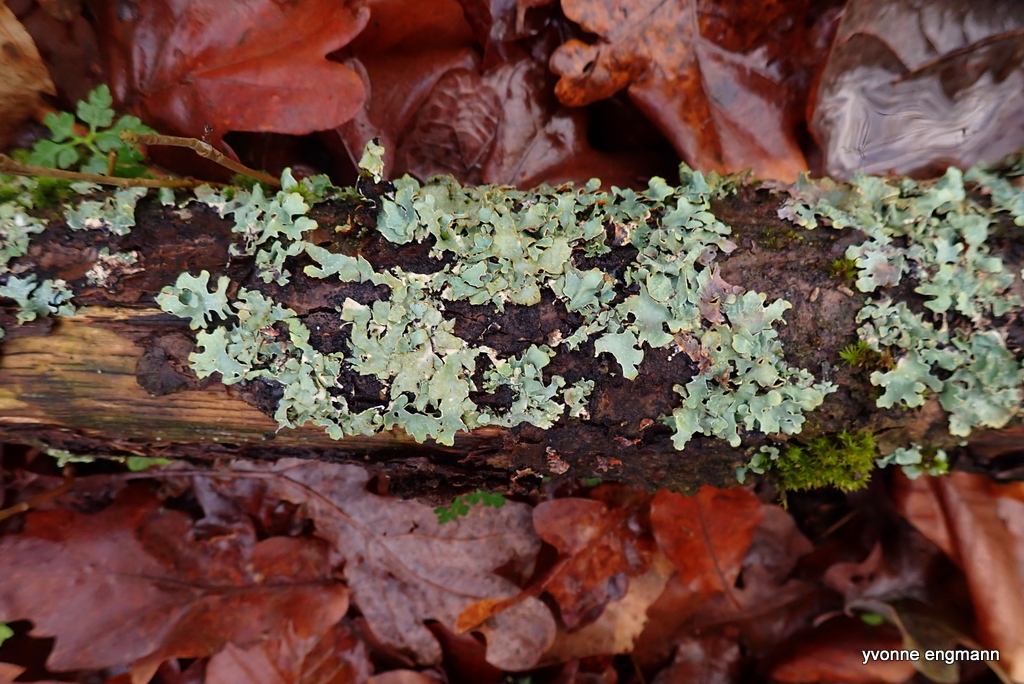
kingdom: Fungi
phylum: Ascomycota
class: Lecanoromycetes
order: Lecanorales
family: Parmeliaceae
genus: Parmelia
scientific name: Parmelia sulcata
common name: rynket skållav
